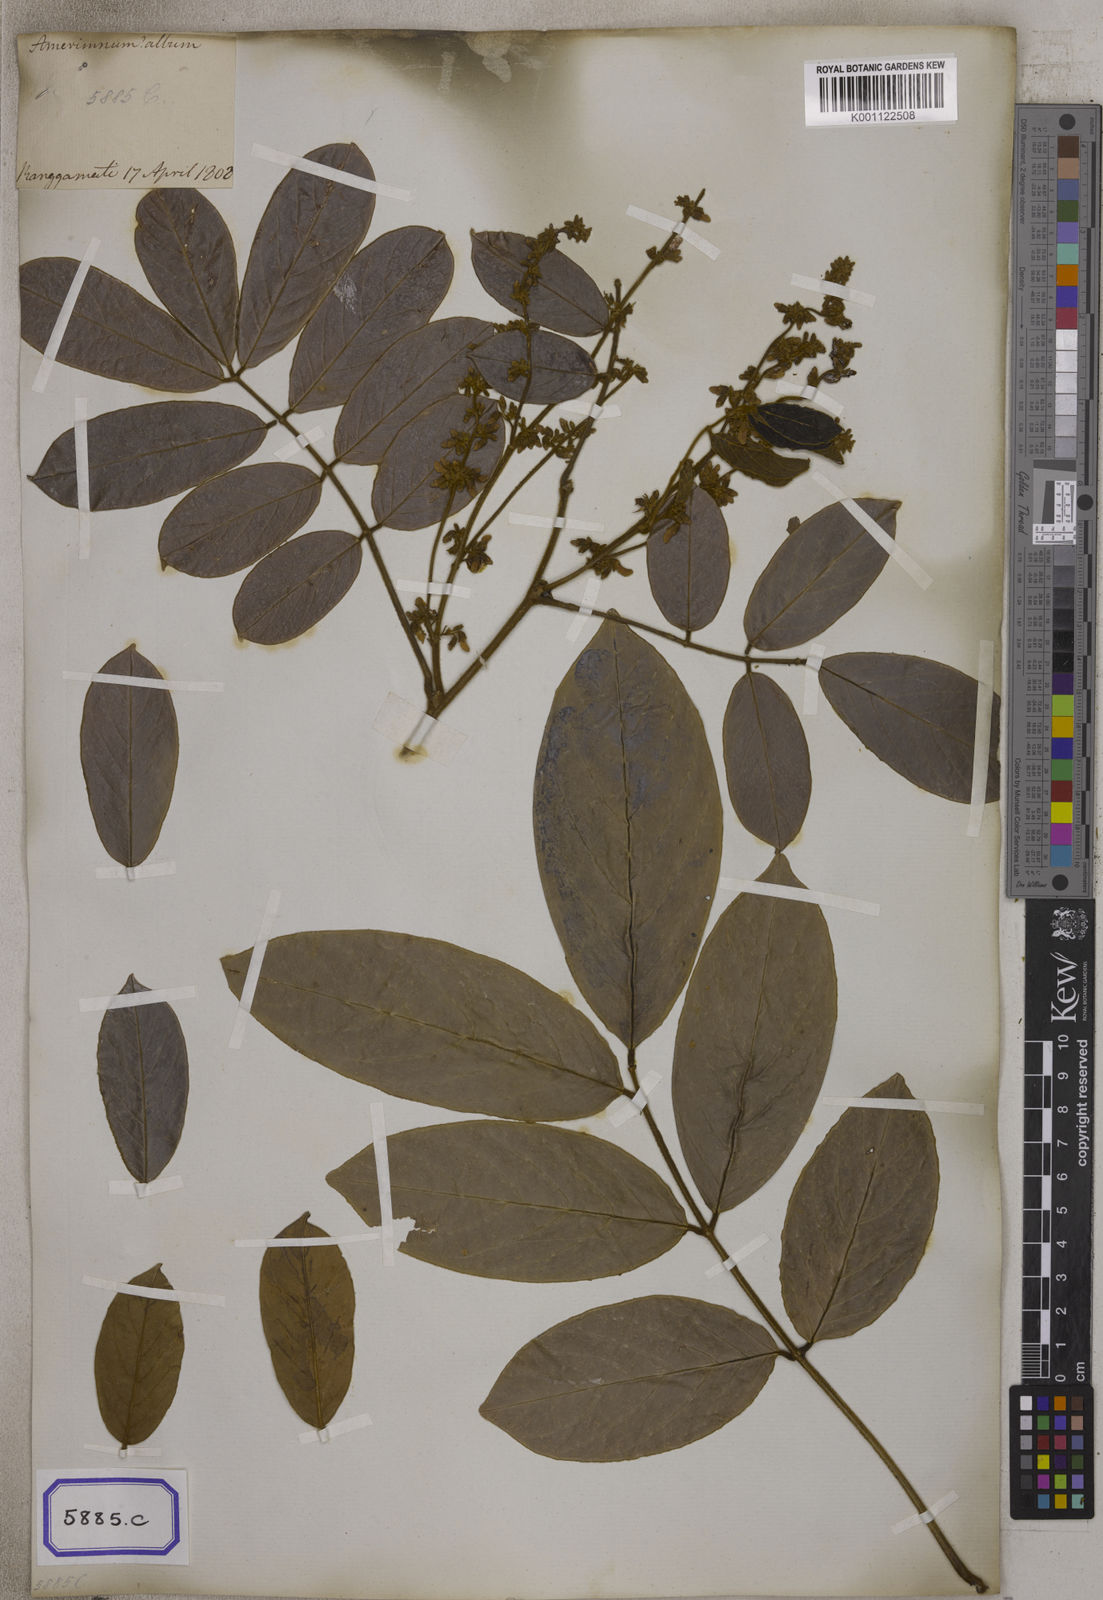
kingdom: Plantae
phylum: Tracheophyta
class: Magnoliopsida
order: Fabales
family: Fabaceae
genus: Derris
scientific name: Derris ferruginea
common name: Indian tubaroot
